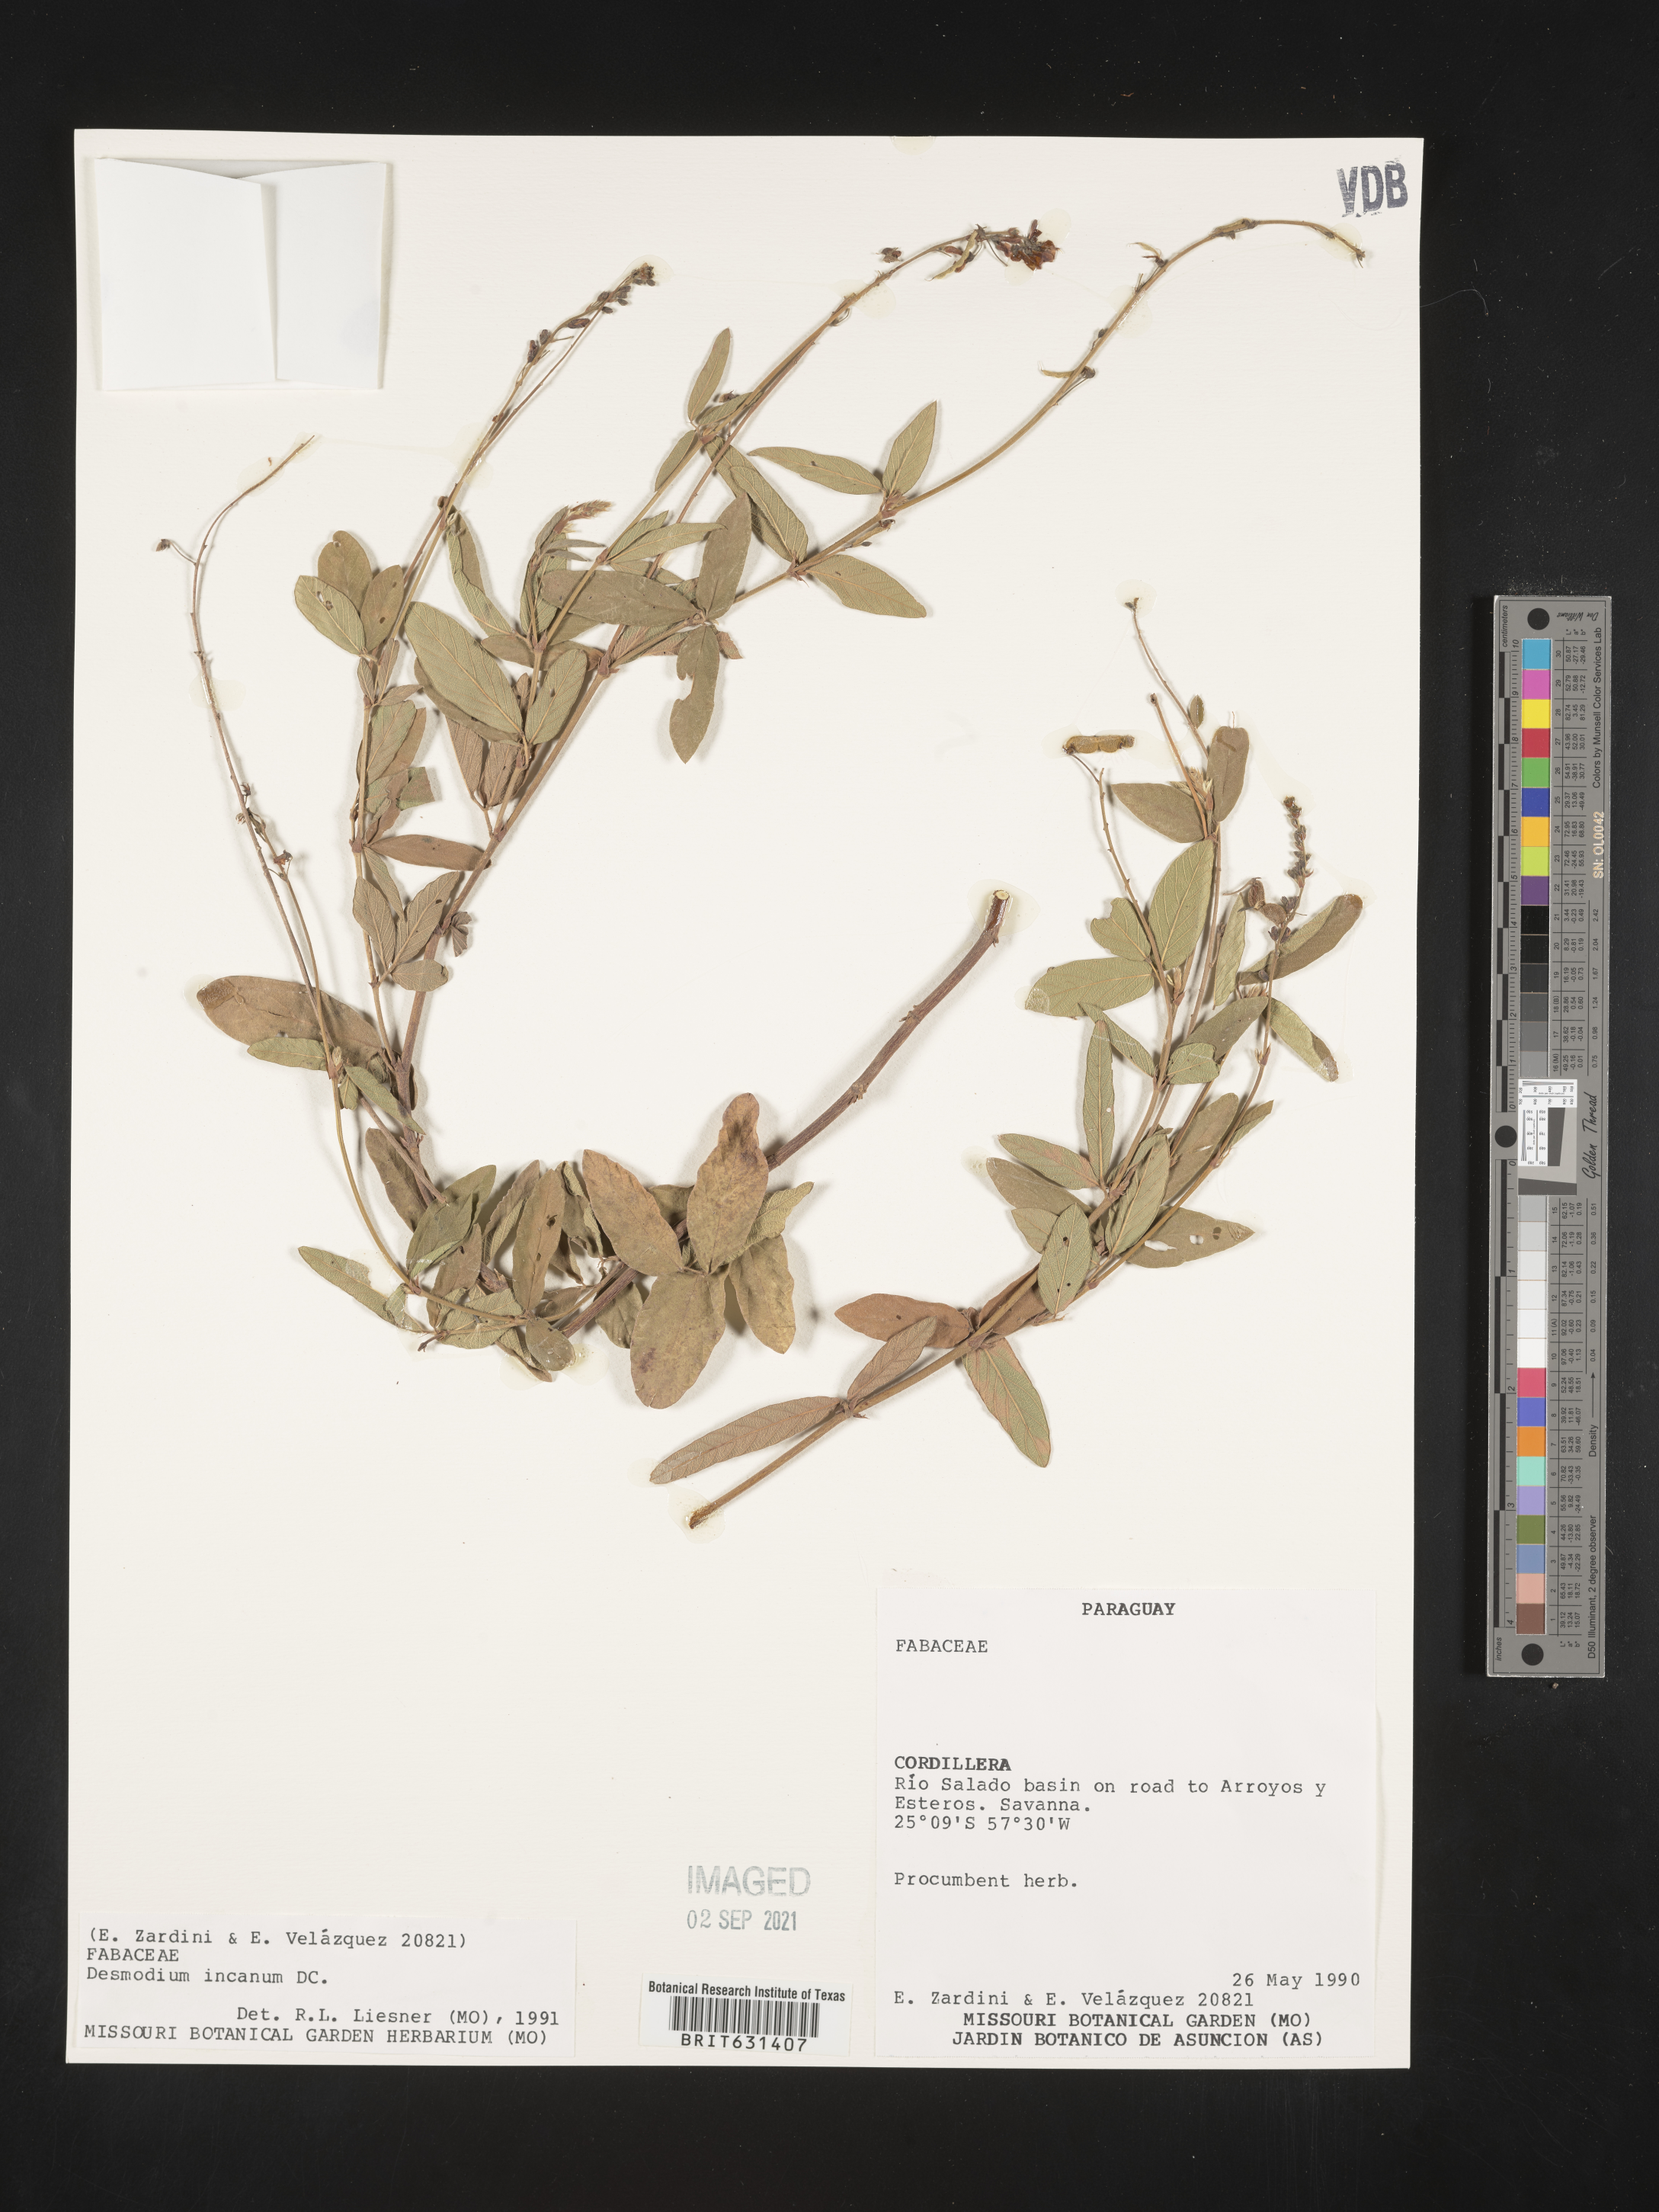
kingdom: Plantae
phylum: Tracheophyta
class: Magnoliopsida
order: Fabales
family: Fabaceae
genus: Desmodium
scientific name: Desmodium incanum
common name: Tickclover
